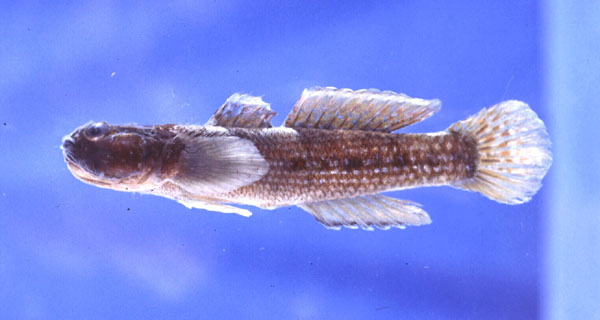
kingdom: Animalia
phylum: Chordata
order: Perciformes
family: Gobiidae
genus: Bathygobius
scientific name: Bathygobius cocosensis
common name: Cocos frillgoby
